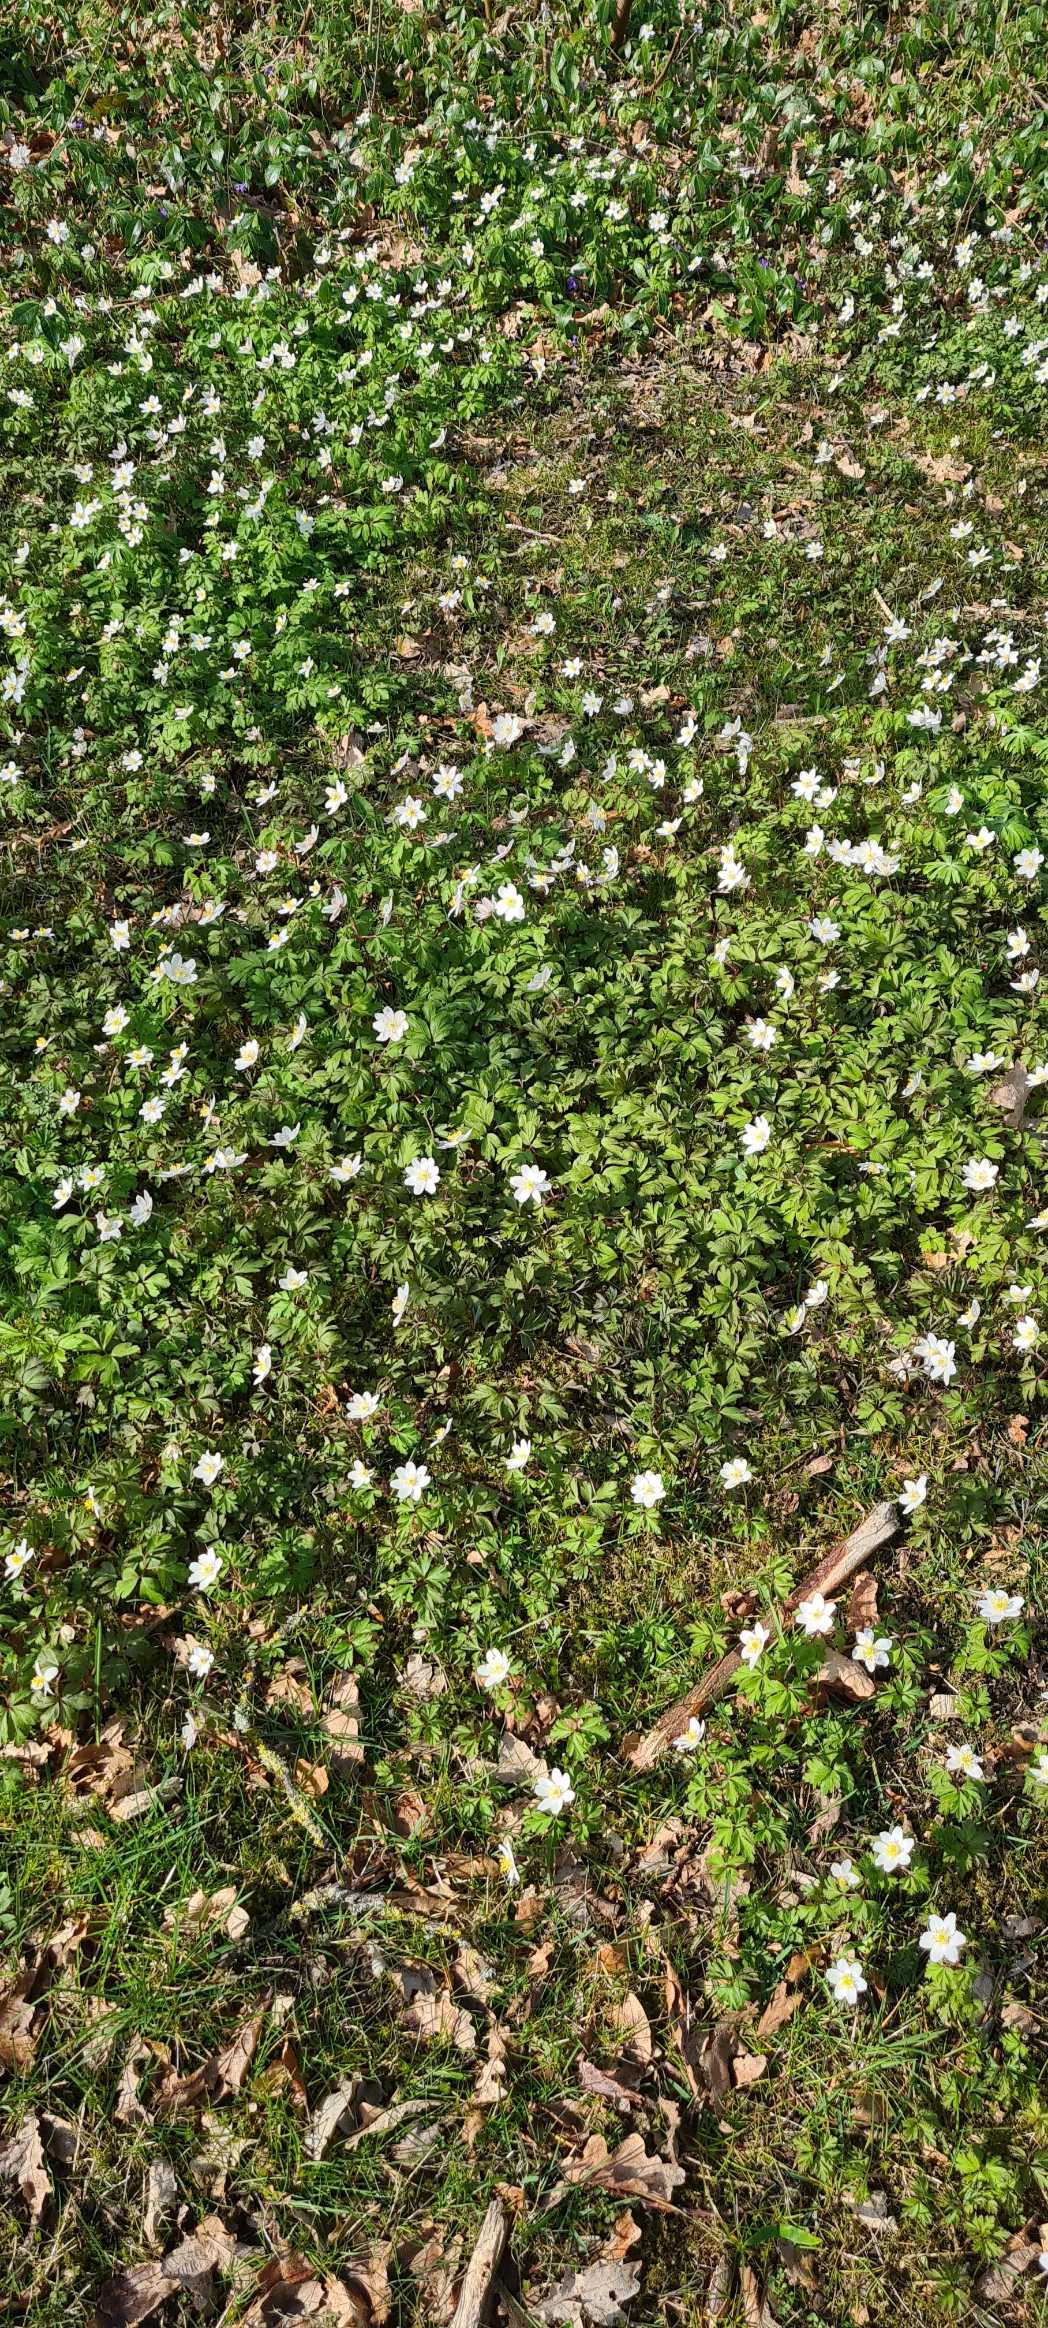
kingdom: Plantae
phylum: Tracheophyta
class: Magnoliopsida
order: Ranunculales
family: Ranunculaceae
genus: Anemone
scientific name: Anemone nemorosa
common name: Hvid anemone
